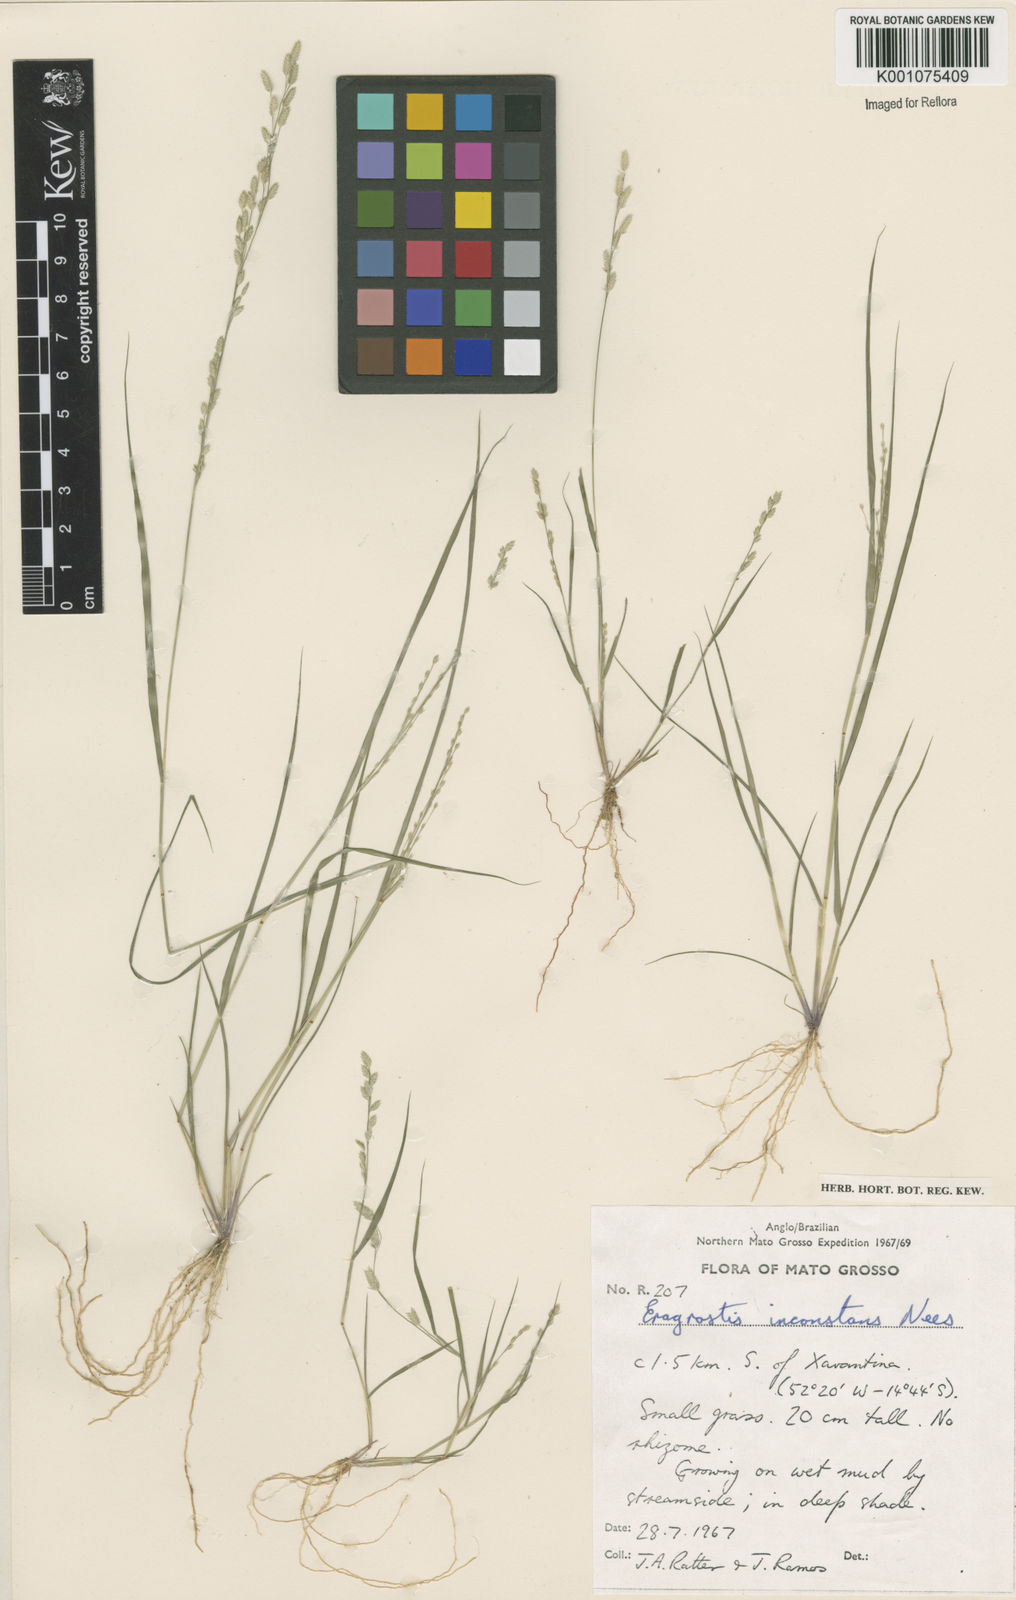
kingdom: Plantae
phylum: Tracheophyta
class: Liliopsida
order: Poales
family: Poaceae
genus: Eragrostis
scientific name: Eragrostis rufescens
